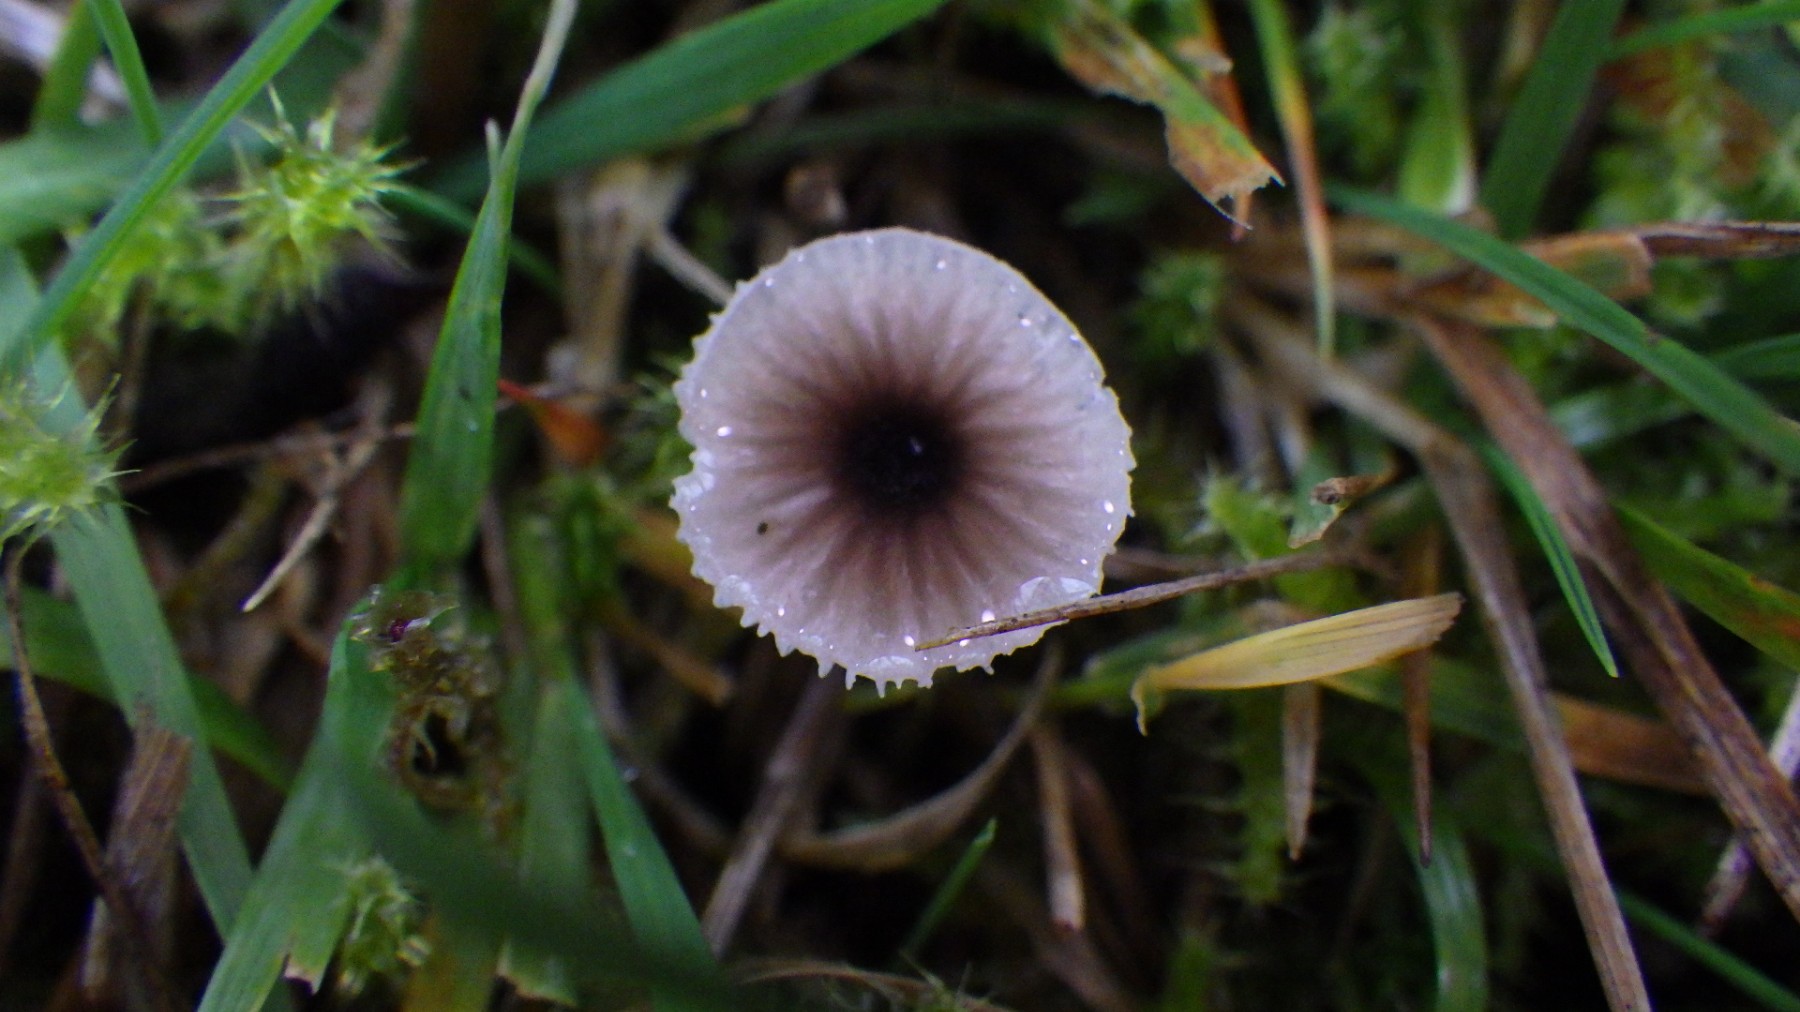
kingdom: Fungi
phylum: Basidiomycota
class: Agaricomycetes
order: Hymenochaetales
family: Rickenellaceae
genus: Rickenella
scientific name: Rickenella swartzii
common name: finstokket mosnavlehat
